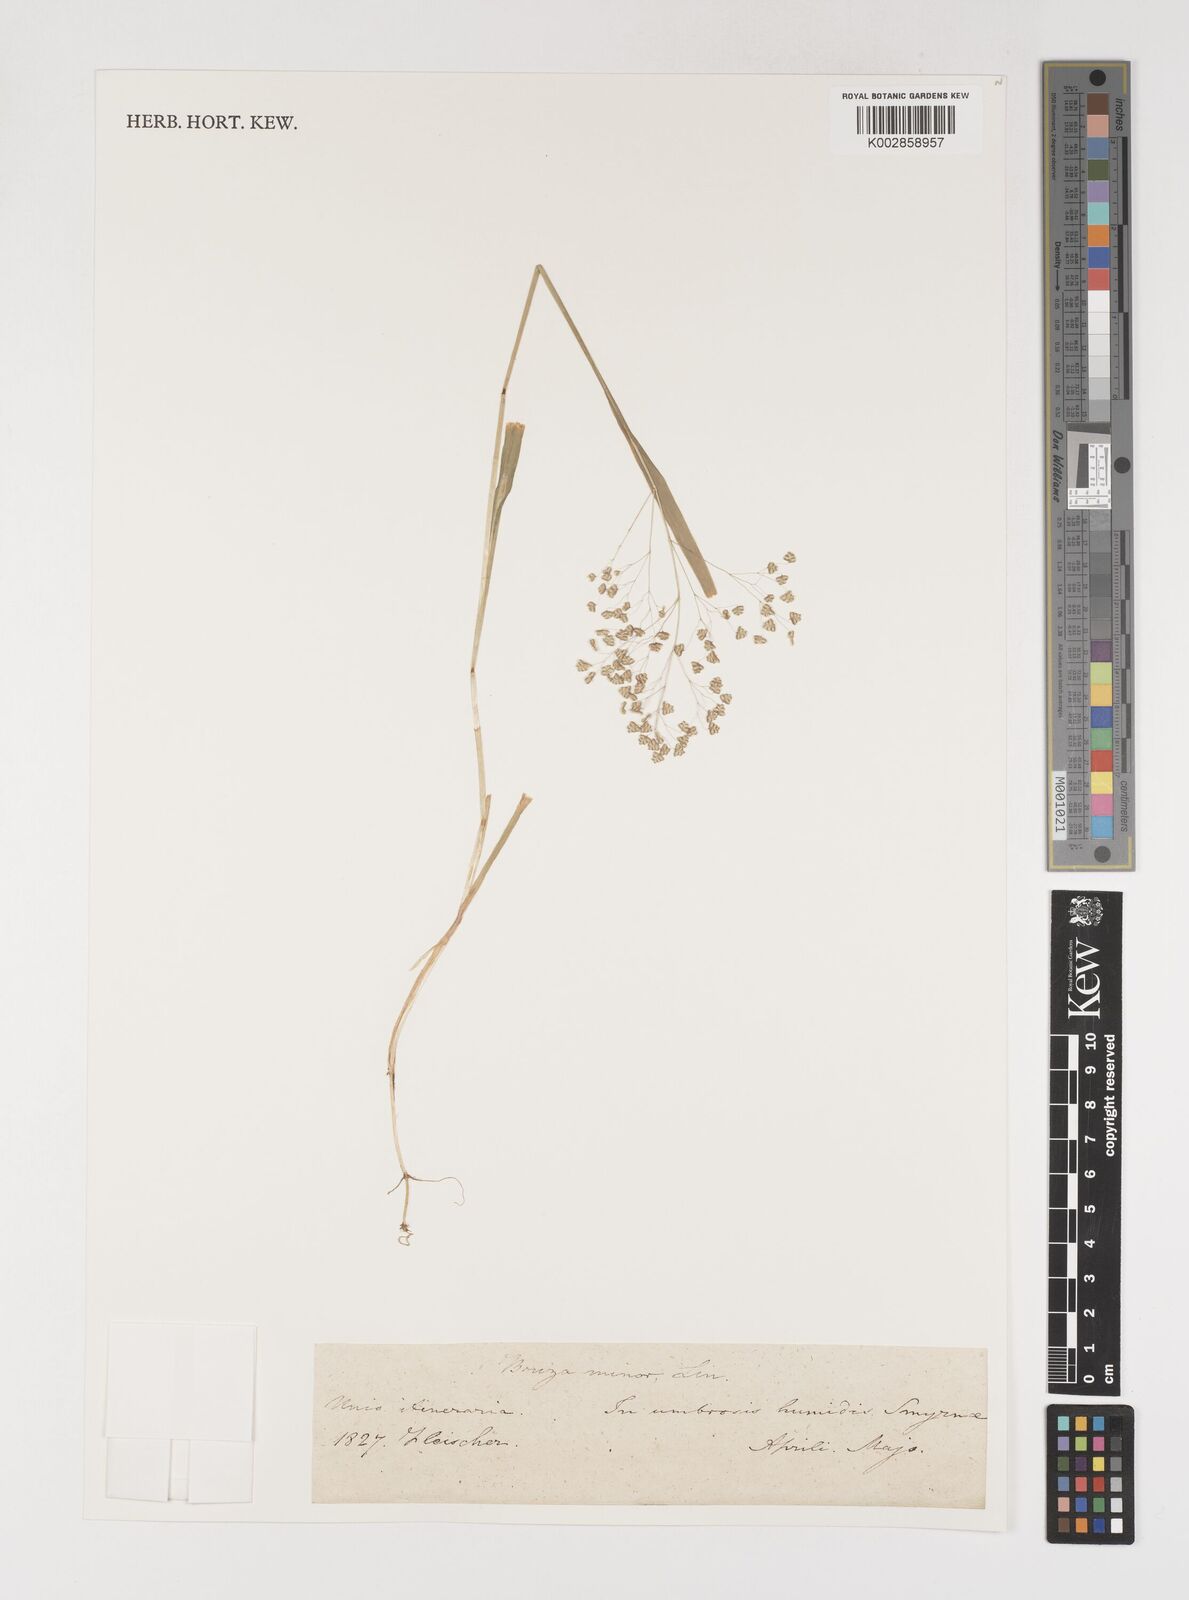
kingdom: Plantae
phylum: Tracheophyta
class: Liliopsida
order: Poales
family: Poaceae
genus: Briza
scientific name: Briza minor
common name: Lesser quaking-grass
